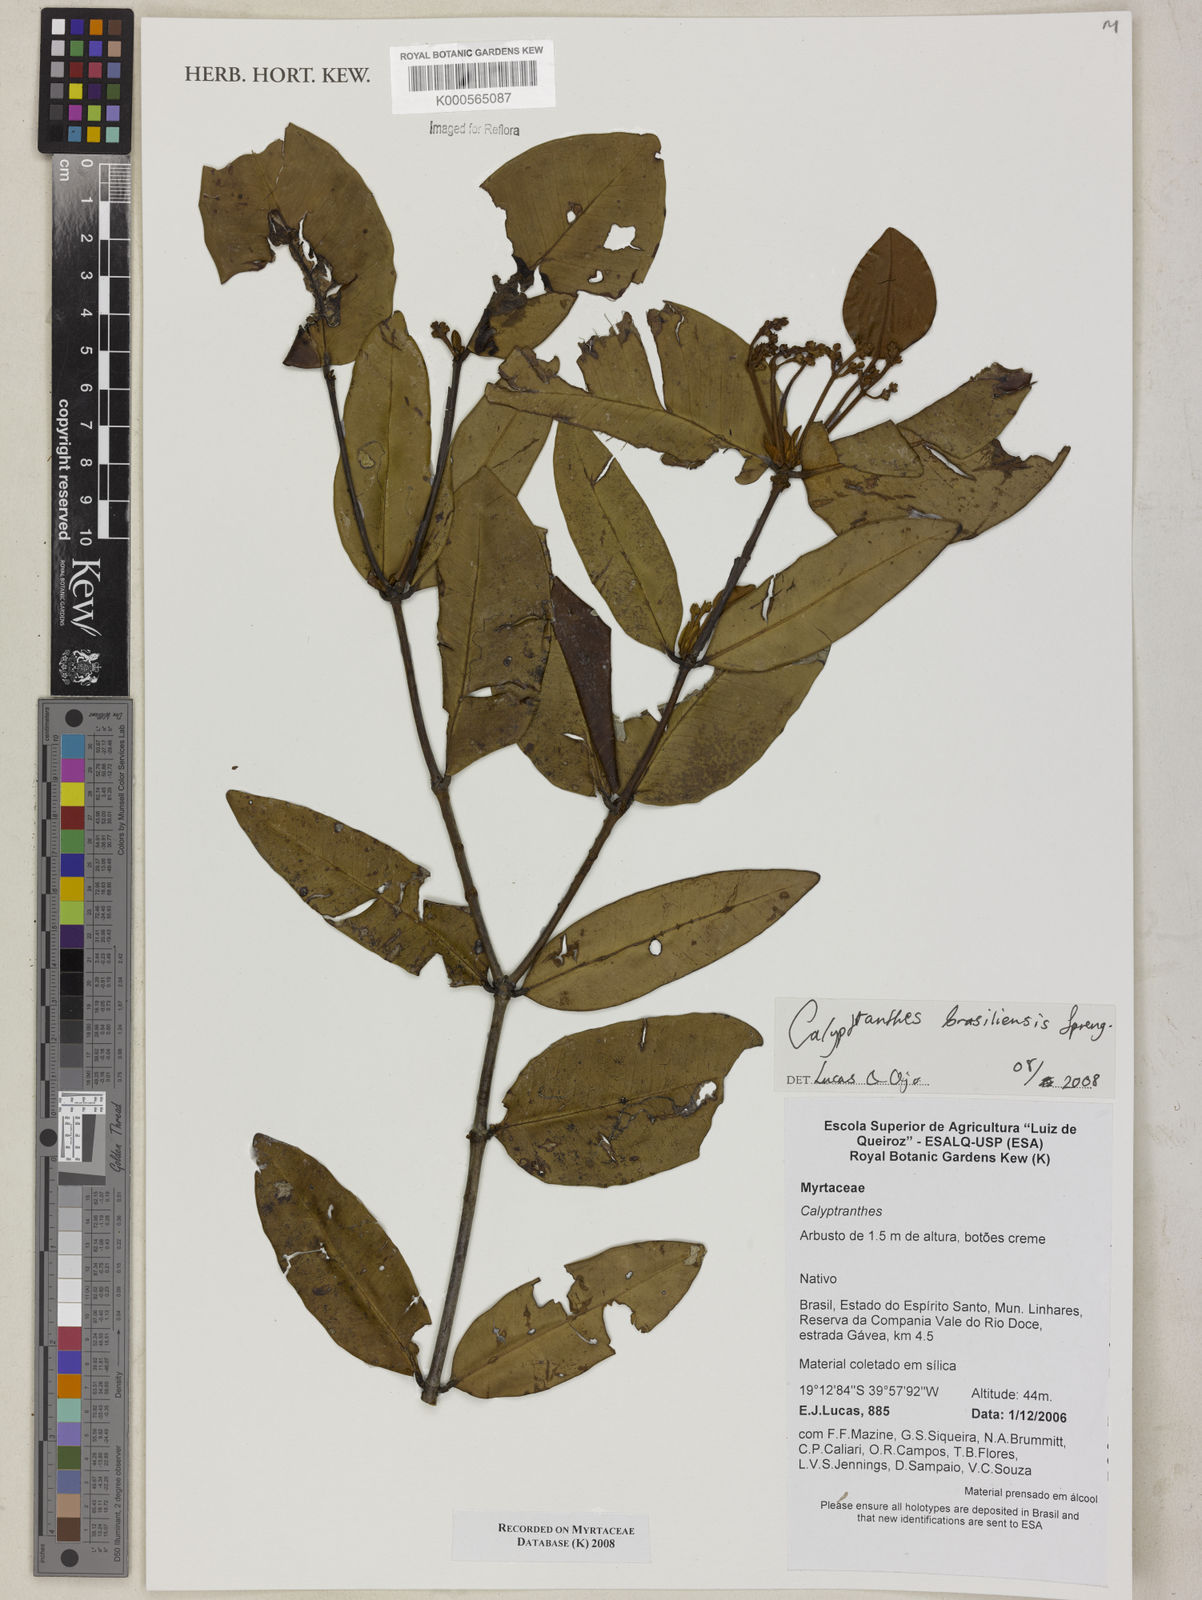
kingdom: Plantae
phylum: Tracheophyta
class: Magnoliopsida
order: Myrtales
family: Myrtaceae
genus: Myrcia
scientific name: Myrcia neobrasiliensis
